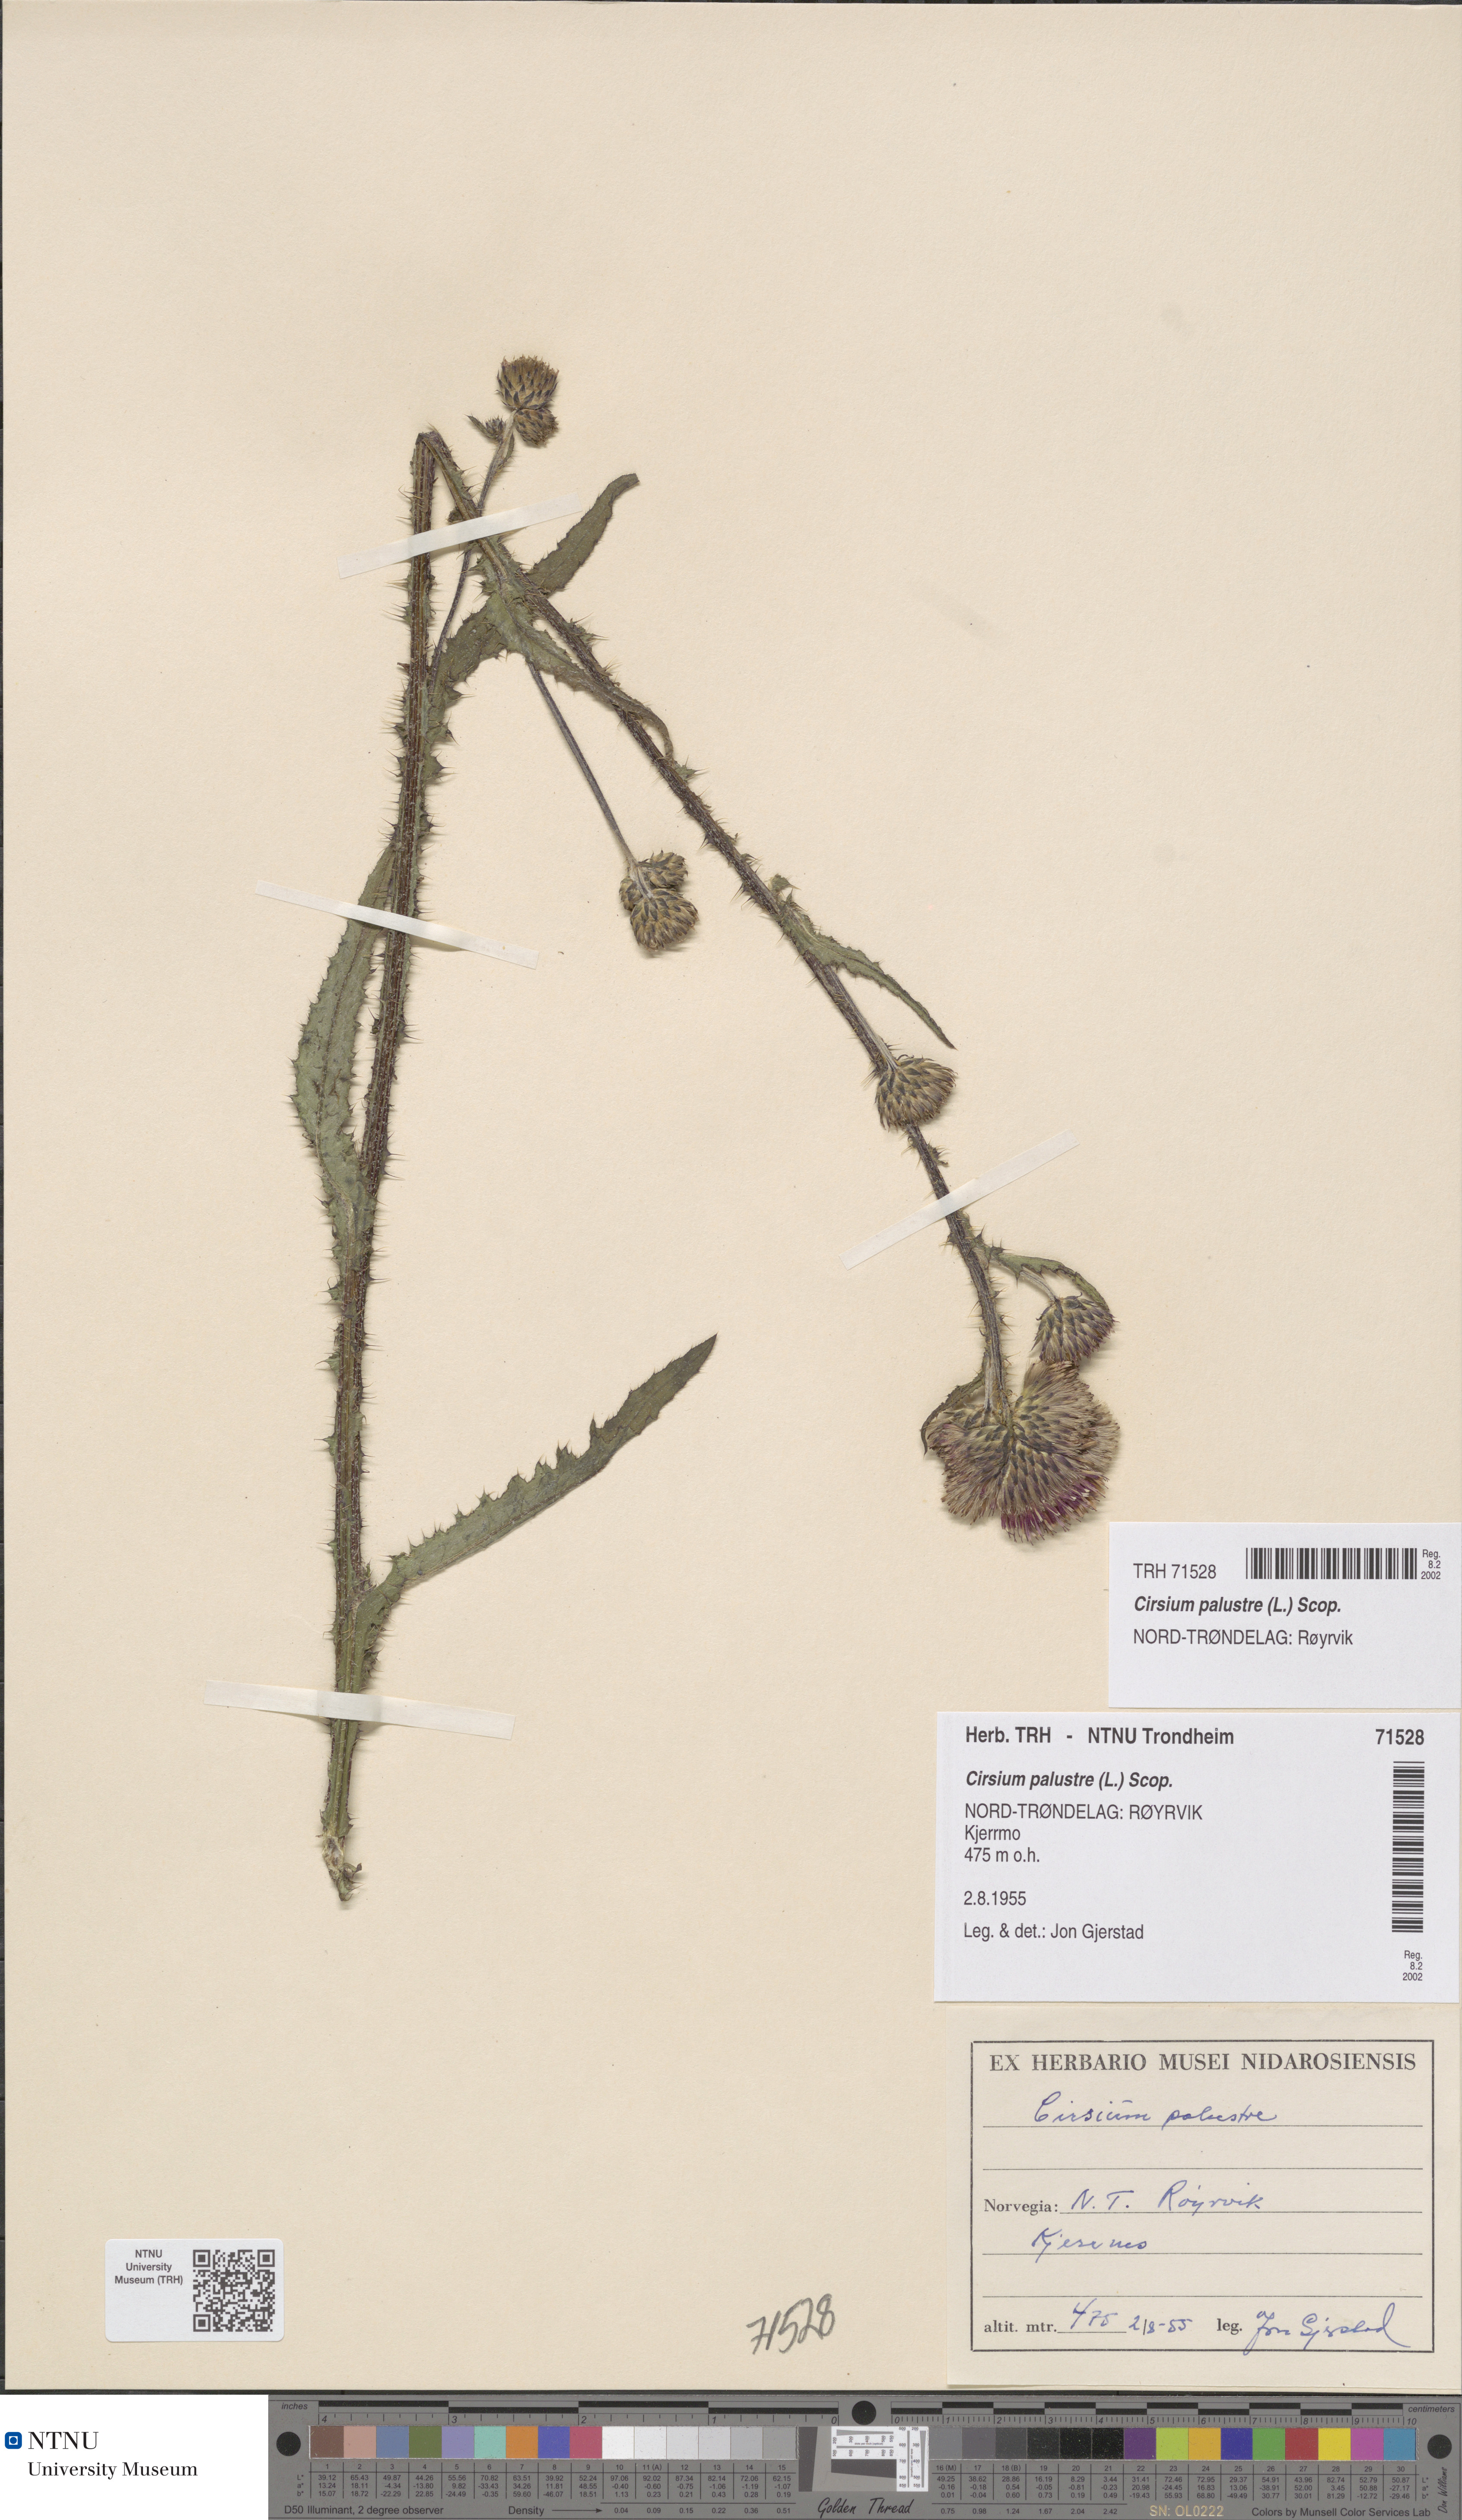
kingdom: Plantae
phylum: Tracheophyta
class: Magnoliopsida
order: Asterales
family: Asteraceae
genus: Cirsium
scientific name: Cirsium palustre
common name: Marsh thistle
